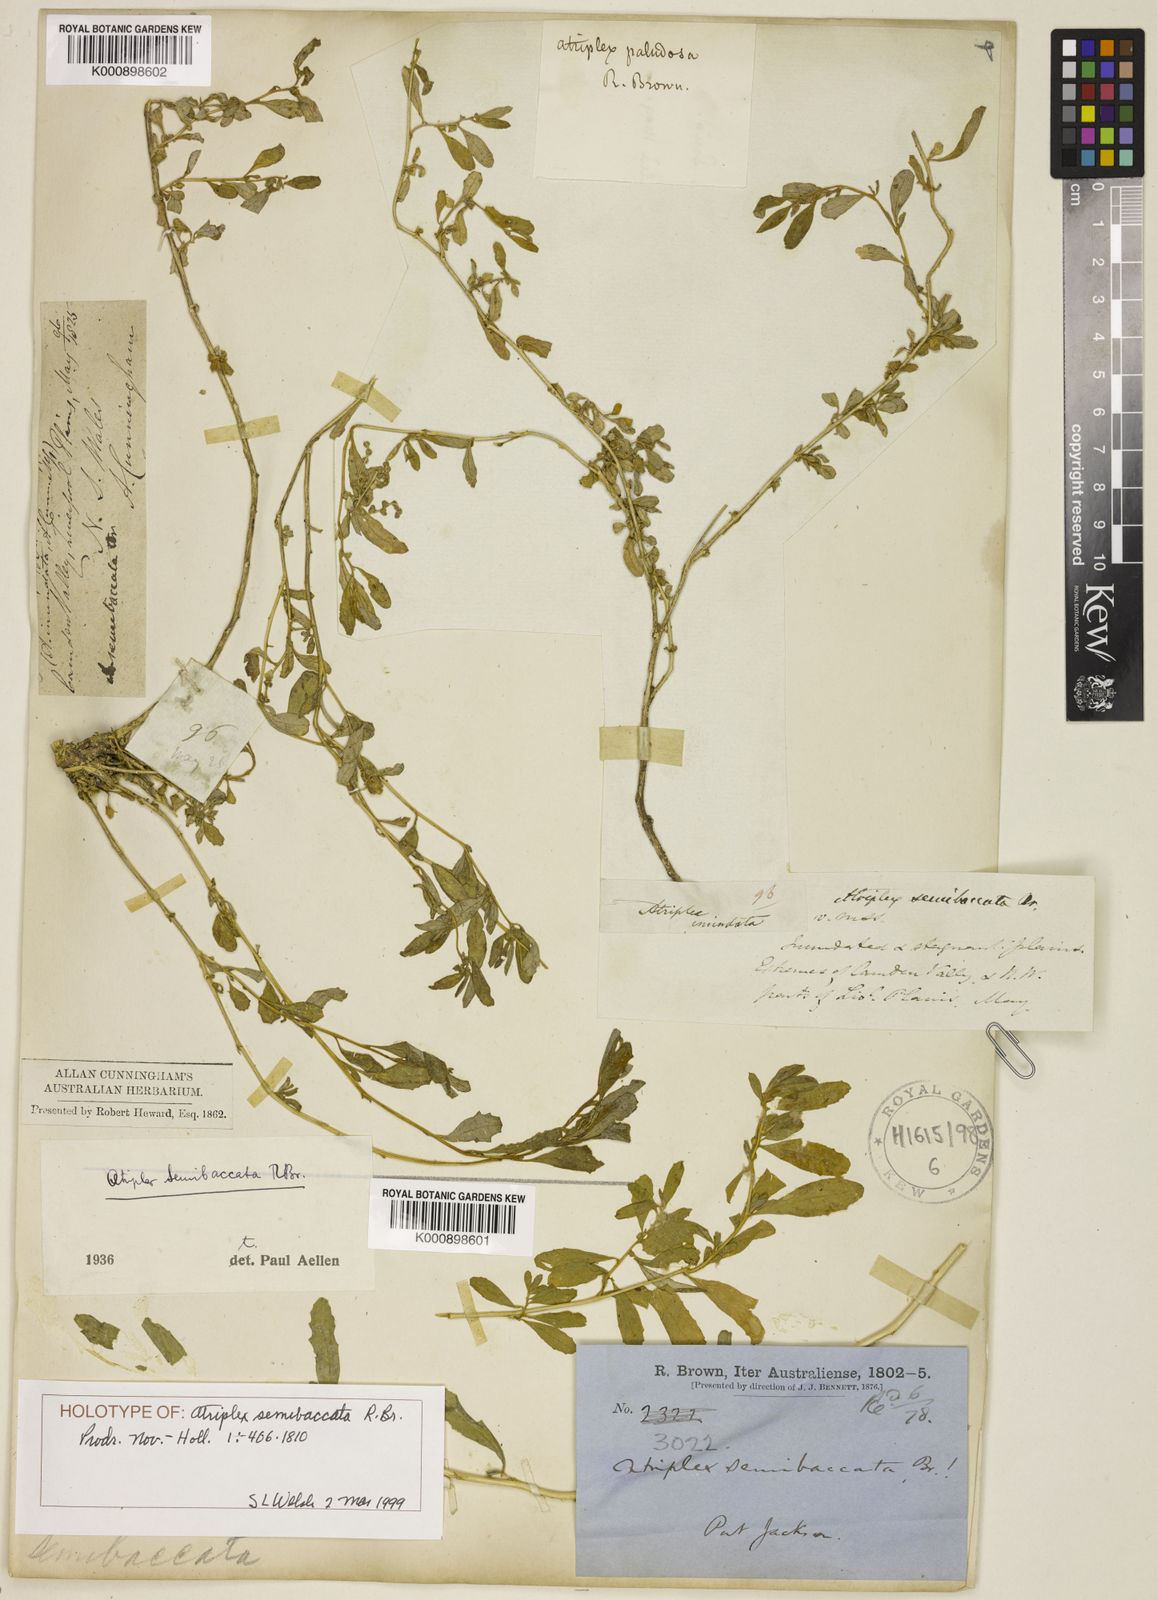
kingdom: Plantae
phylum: Tracheophyta
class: Magnoliopsida
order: Caryophyllales
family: Amaranthaceae
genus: Atriplex
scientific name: Atriplex semibaccata
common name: Australian saltbush
